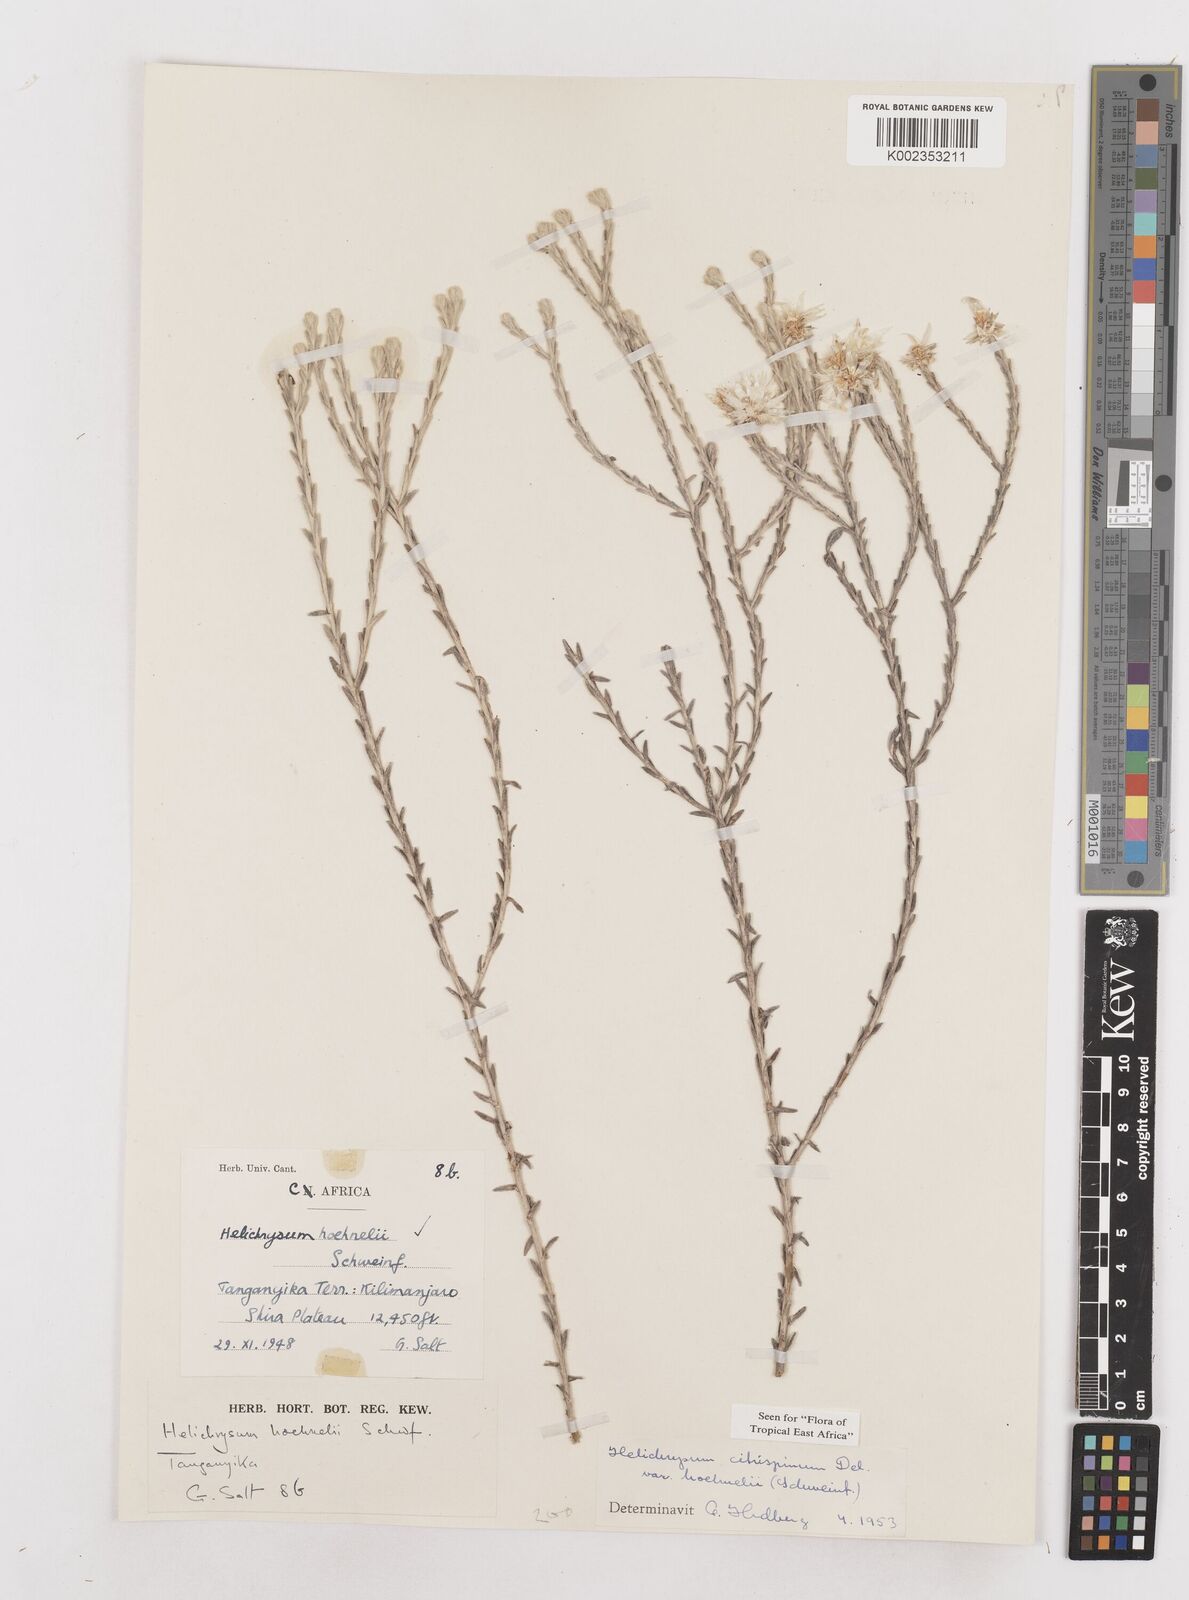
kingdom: Plantae
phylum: Tracheophyta
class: Magnoliopsida
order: Asterales
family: Asteraceae
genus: Helichrysum
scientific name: Helichrysum citrispinum
